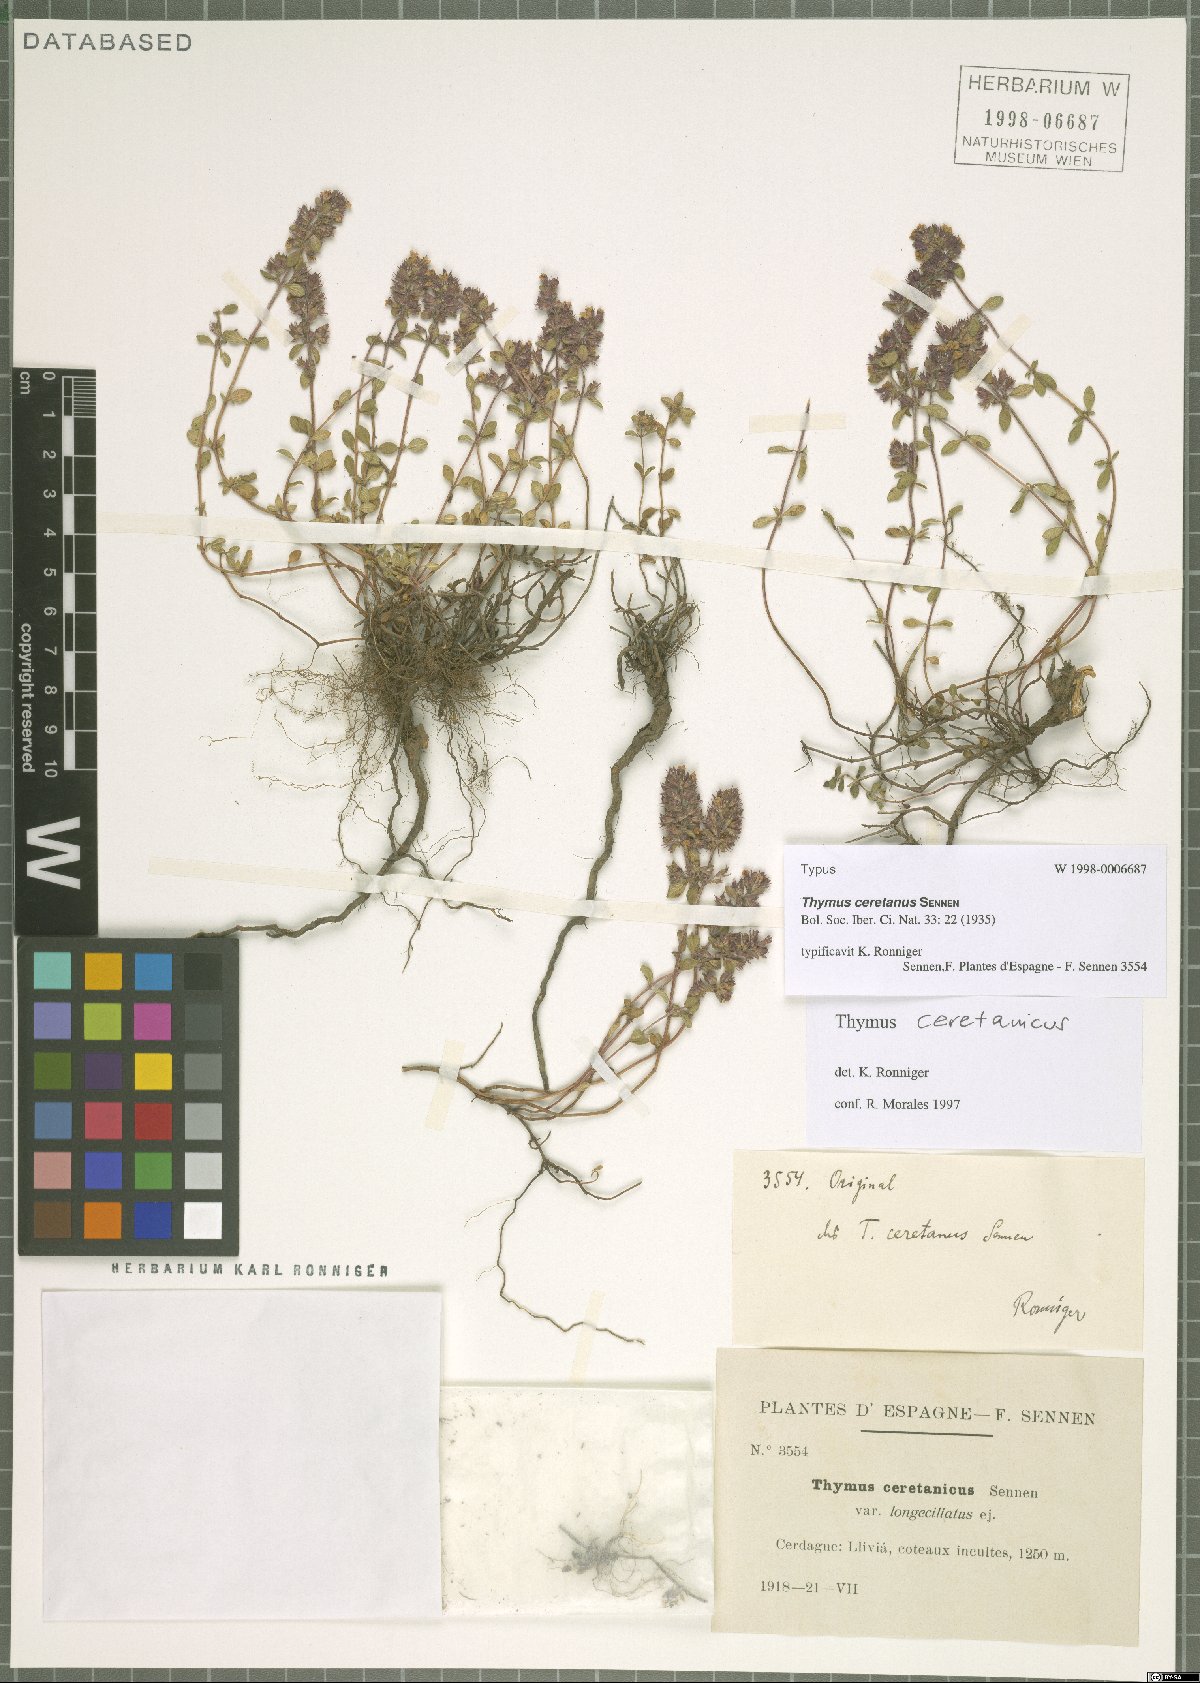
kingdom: Plantae
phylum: Tracheophyta
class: Magnoliopsida
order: Lamiales
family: Lamiaceae
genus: Thymus
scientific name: Thymus praecox
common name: Wild thyme
